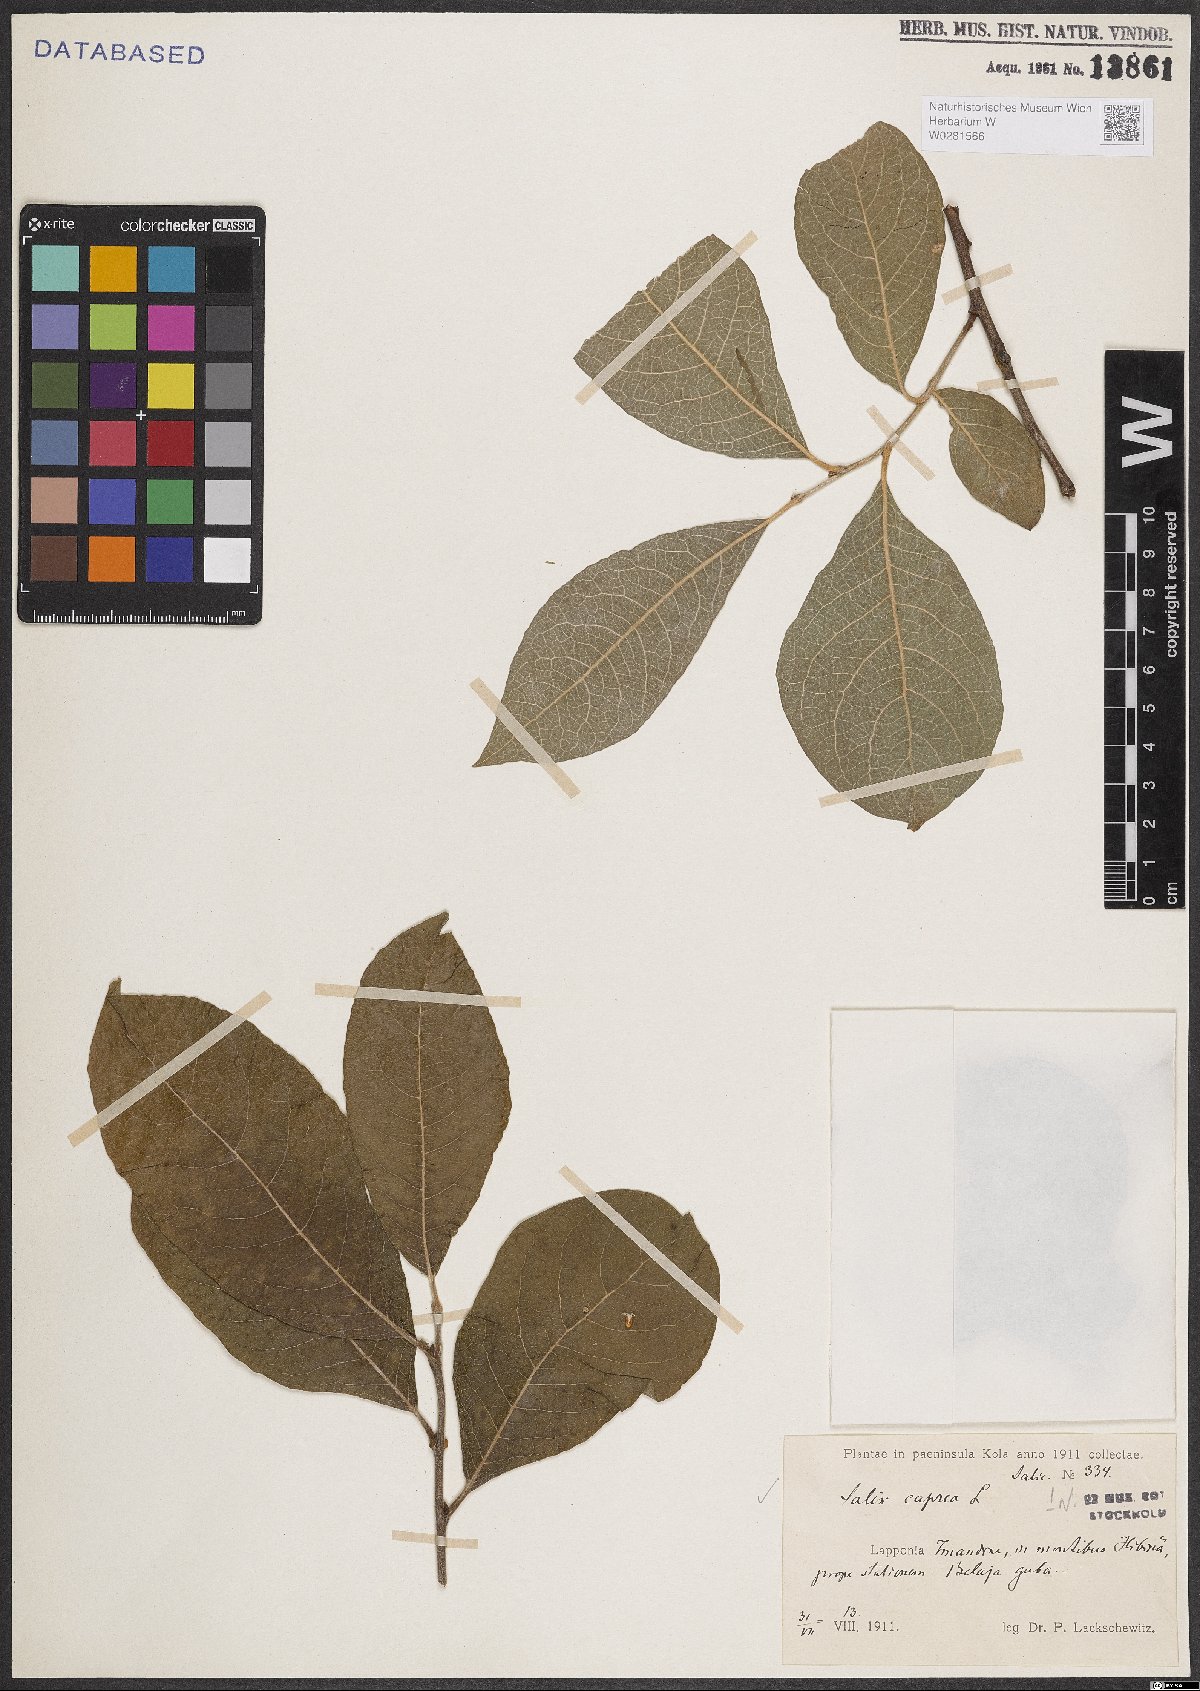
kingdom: Plantae
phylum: Tracheophyta
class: Magnoliopsida
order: Malpighiales
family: Salicaceae
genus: Salix
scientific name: Salix caprea
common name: Goat willow
